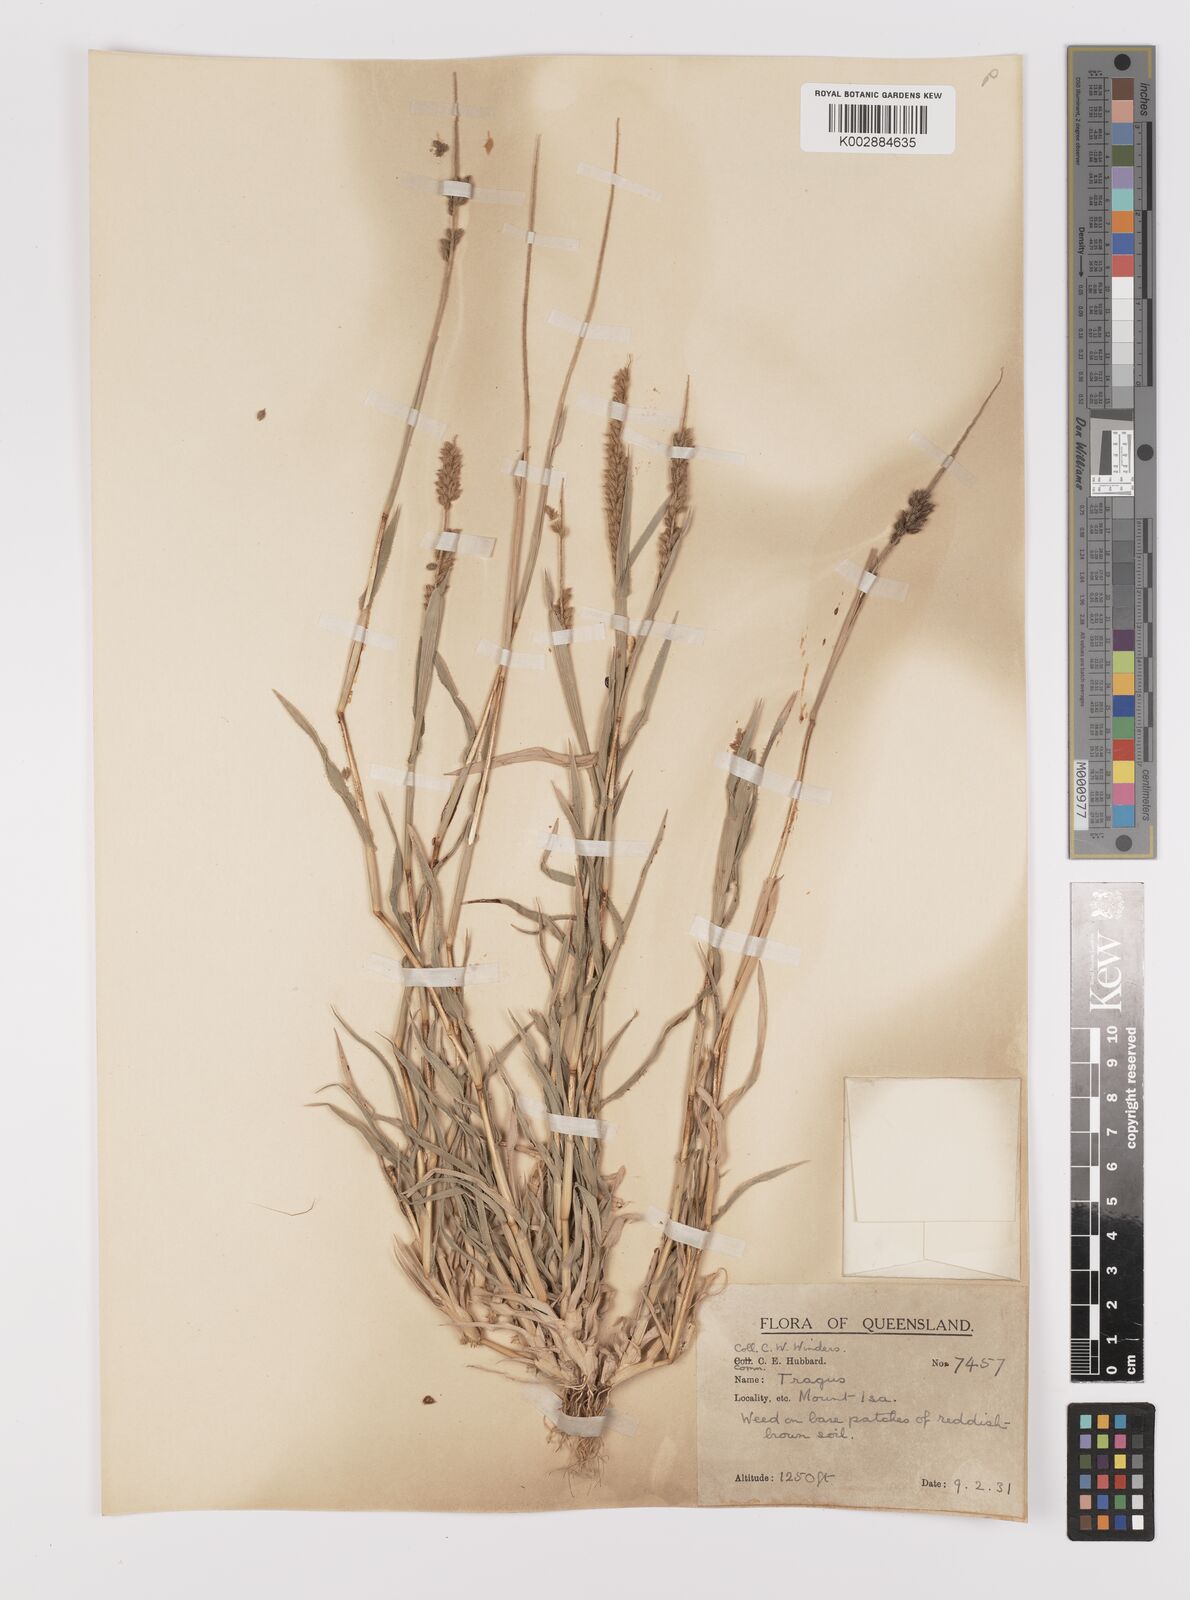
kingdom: Plantae
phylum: Tracheophyta
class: Liliopsida
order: Poales
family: Poaceae
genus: Tragus
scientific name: Tragus australianus
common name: Australian bur-grass
